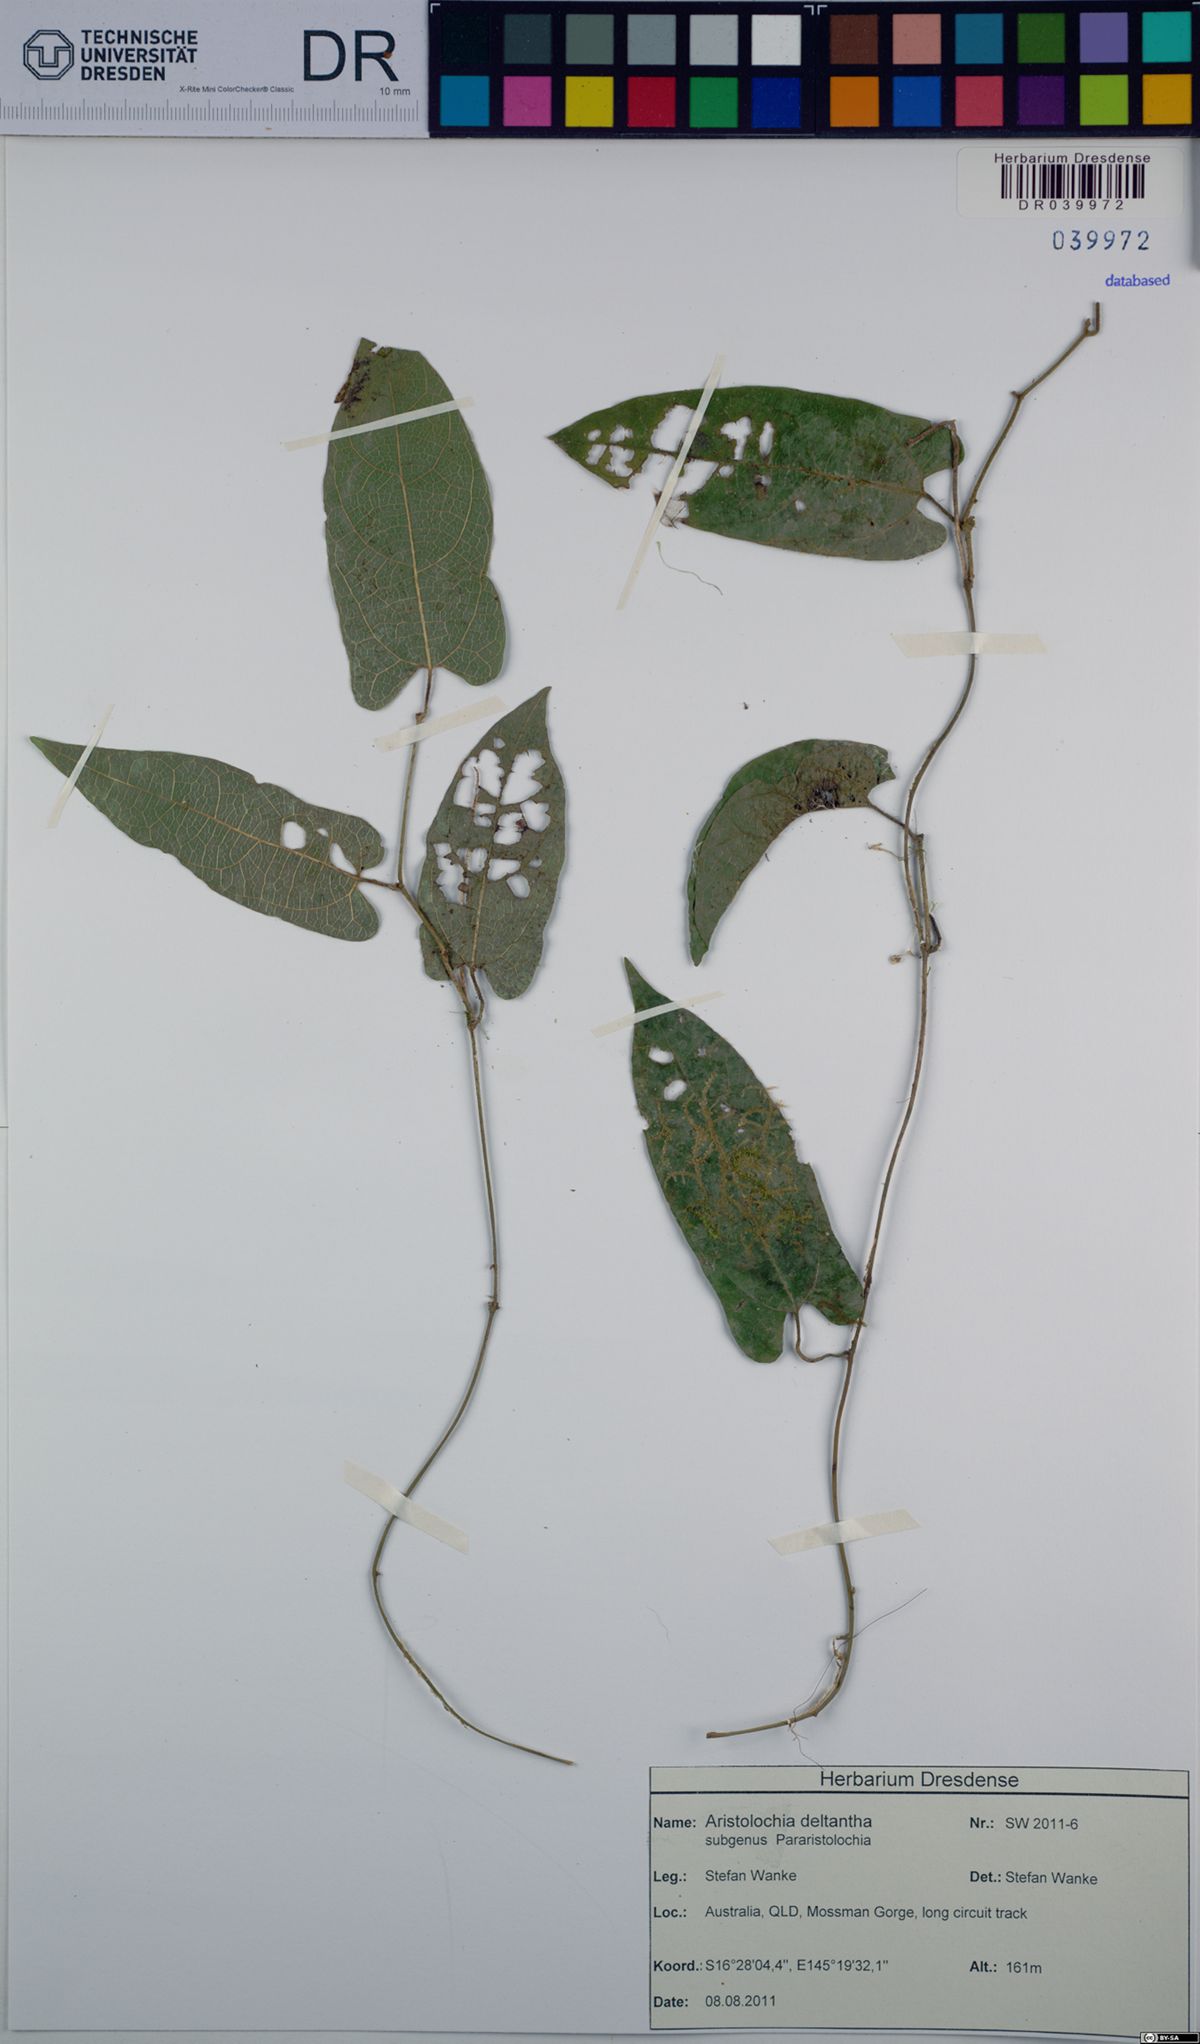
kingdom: Plantae
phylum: Tracheophyta
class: Magnoliopsida
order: Piperales
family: Aristolochiaceae
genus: Aristolochia
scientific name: Aristolochia deltantha
